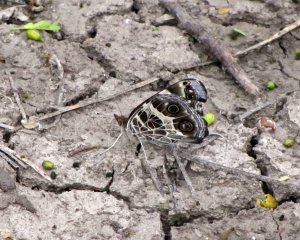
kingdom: Animalia
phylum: Arthropoda
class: Insecta
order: Lepidoptera
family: Nymphalidae
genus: Vanessa
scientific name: Vanessa virginiensis
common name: American Lady
